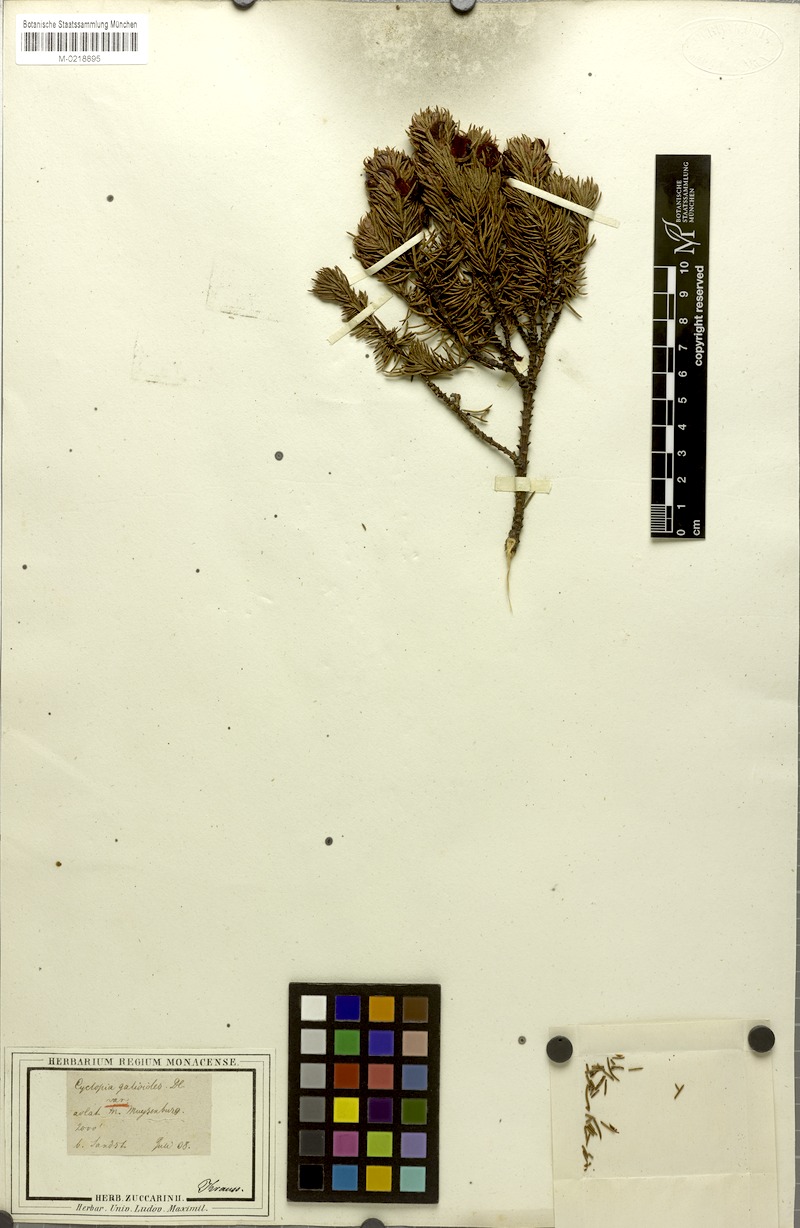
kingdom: Plantae
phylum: Tracheophyta
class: Magnoliopsida
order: Fabales
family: Fabaceae
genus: Cyclopia
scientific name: Cyclopia galioides
